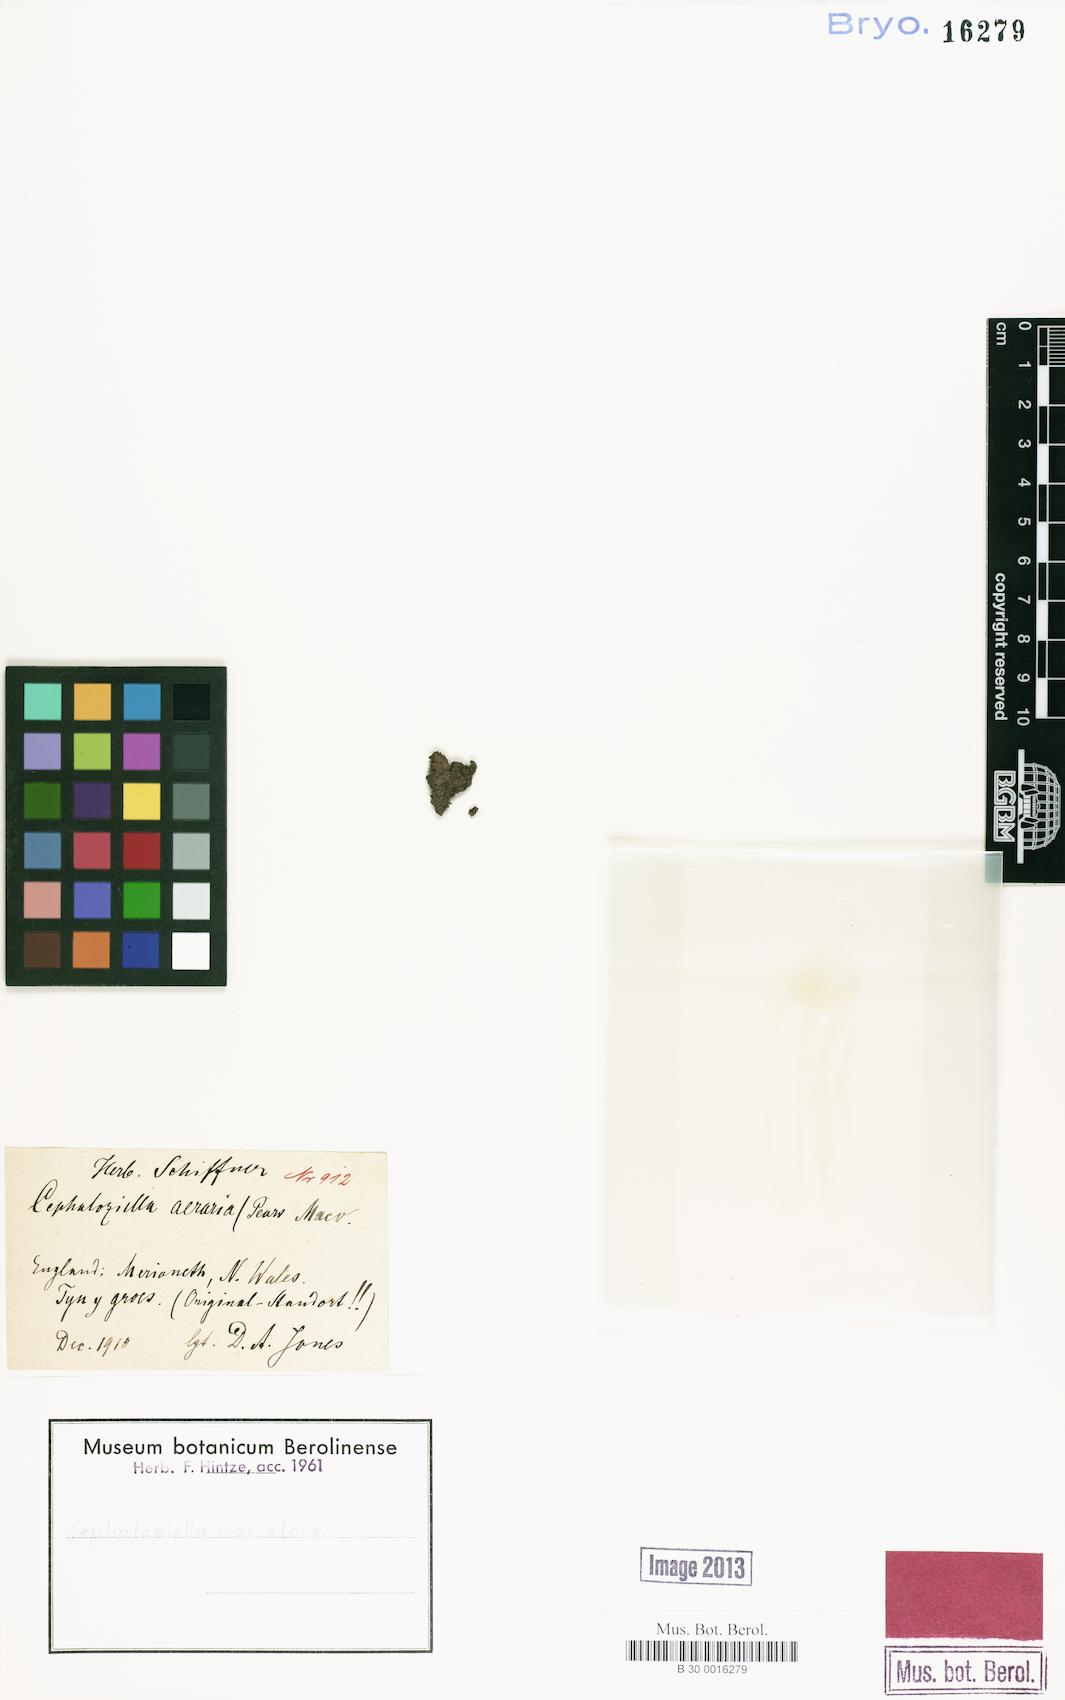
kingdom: Plantae
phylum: Marchantiophyta
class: Jungermanniopsida
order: Jungermanniales
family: Cephaloziellaceae
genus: Cephaloziella
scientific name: Cephaloziella massalongi
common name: Lesser copperwort
